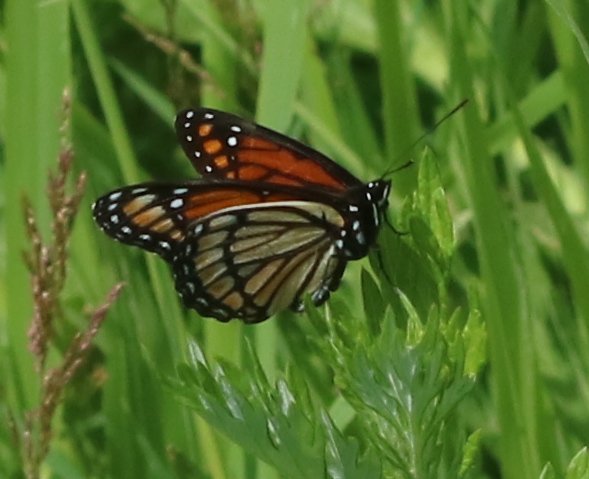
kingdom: Animalia
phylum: Arthropoda
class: Insecta
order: Lepidoptera
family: Nymphalidae
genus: Limenitis
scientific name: Limenitis archippus
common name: Viceroy
